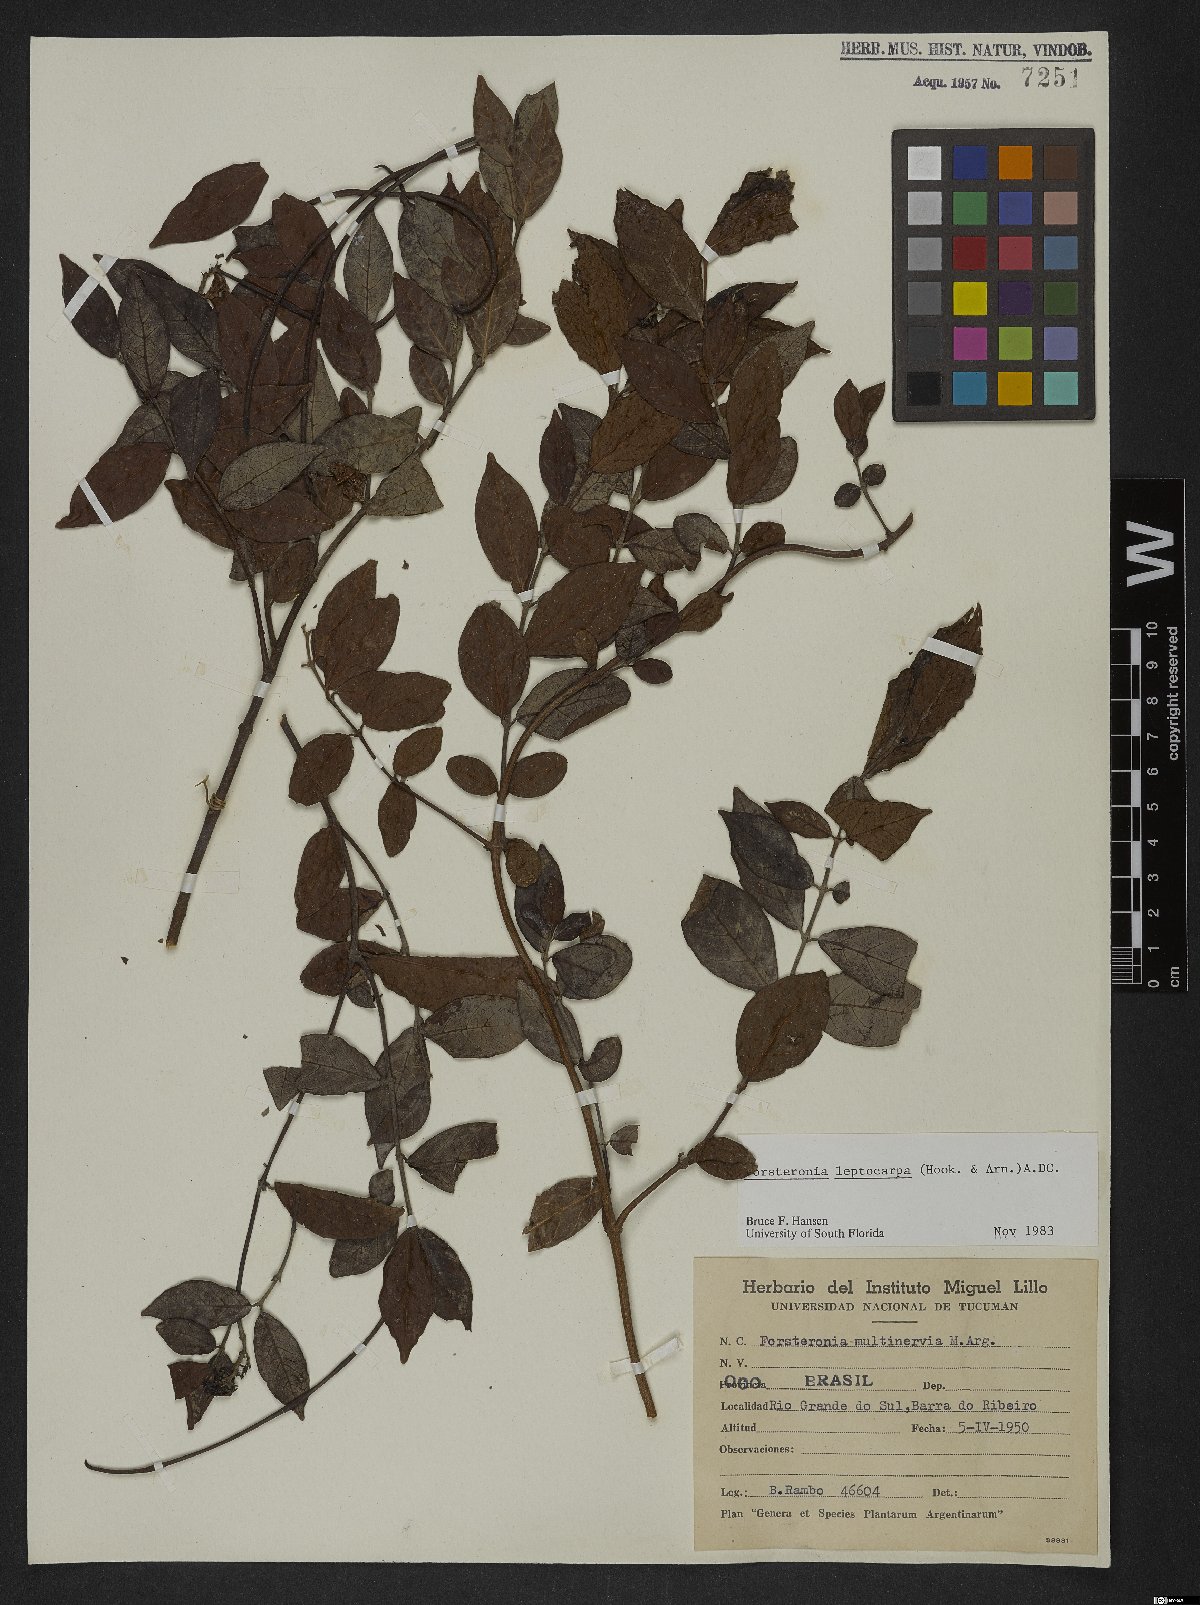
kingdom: Plantae
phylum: Tracheophyta
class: Magnoliopsida
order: Gentianales
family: Apocynaceae
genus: Forsteronia
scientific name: Forsteronia leptocarpa
